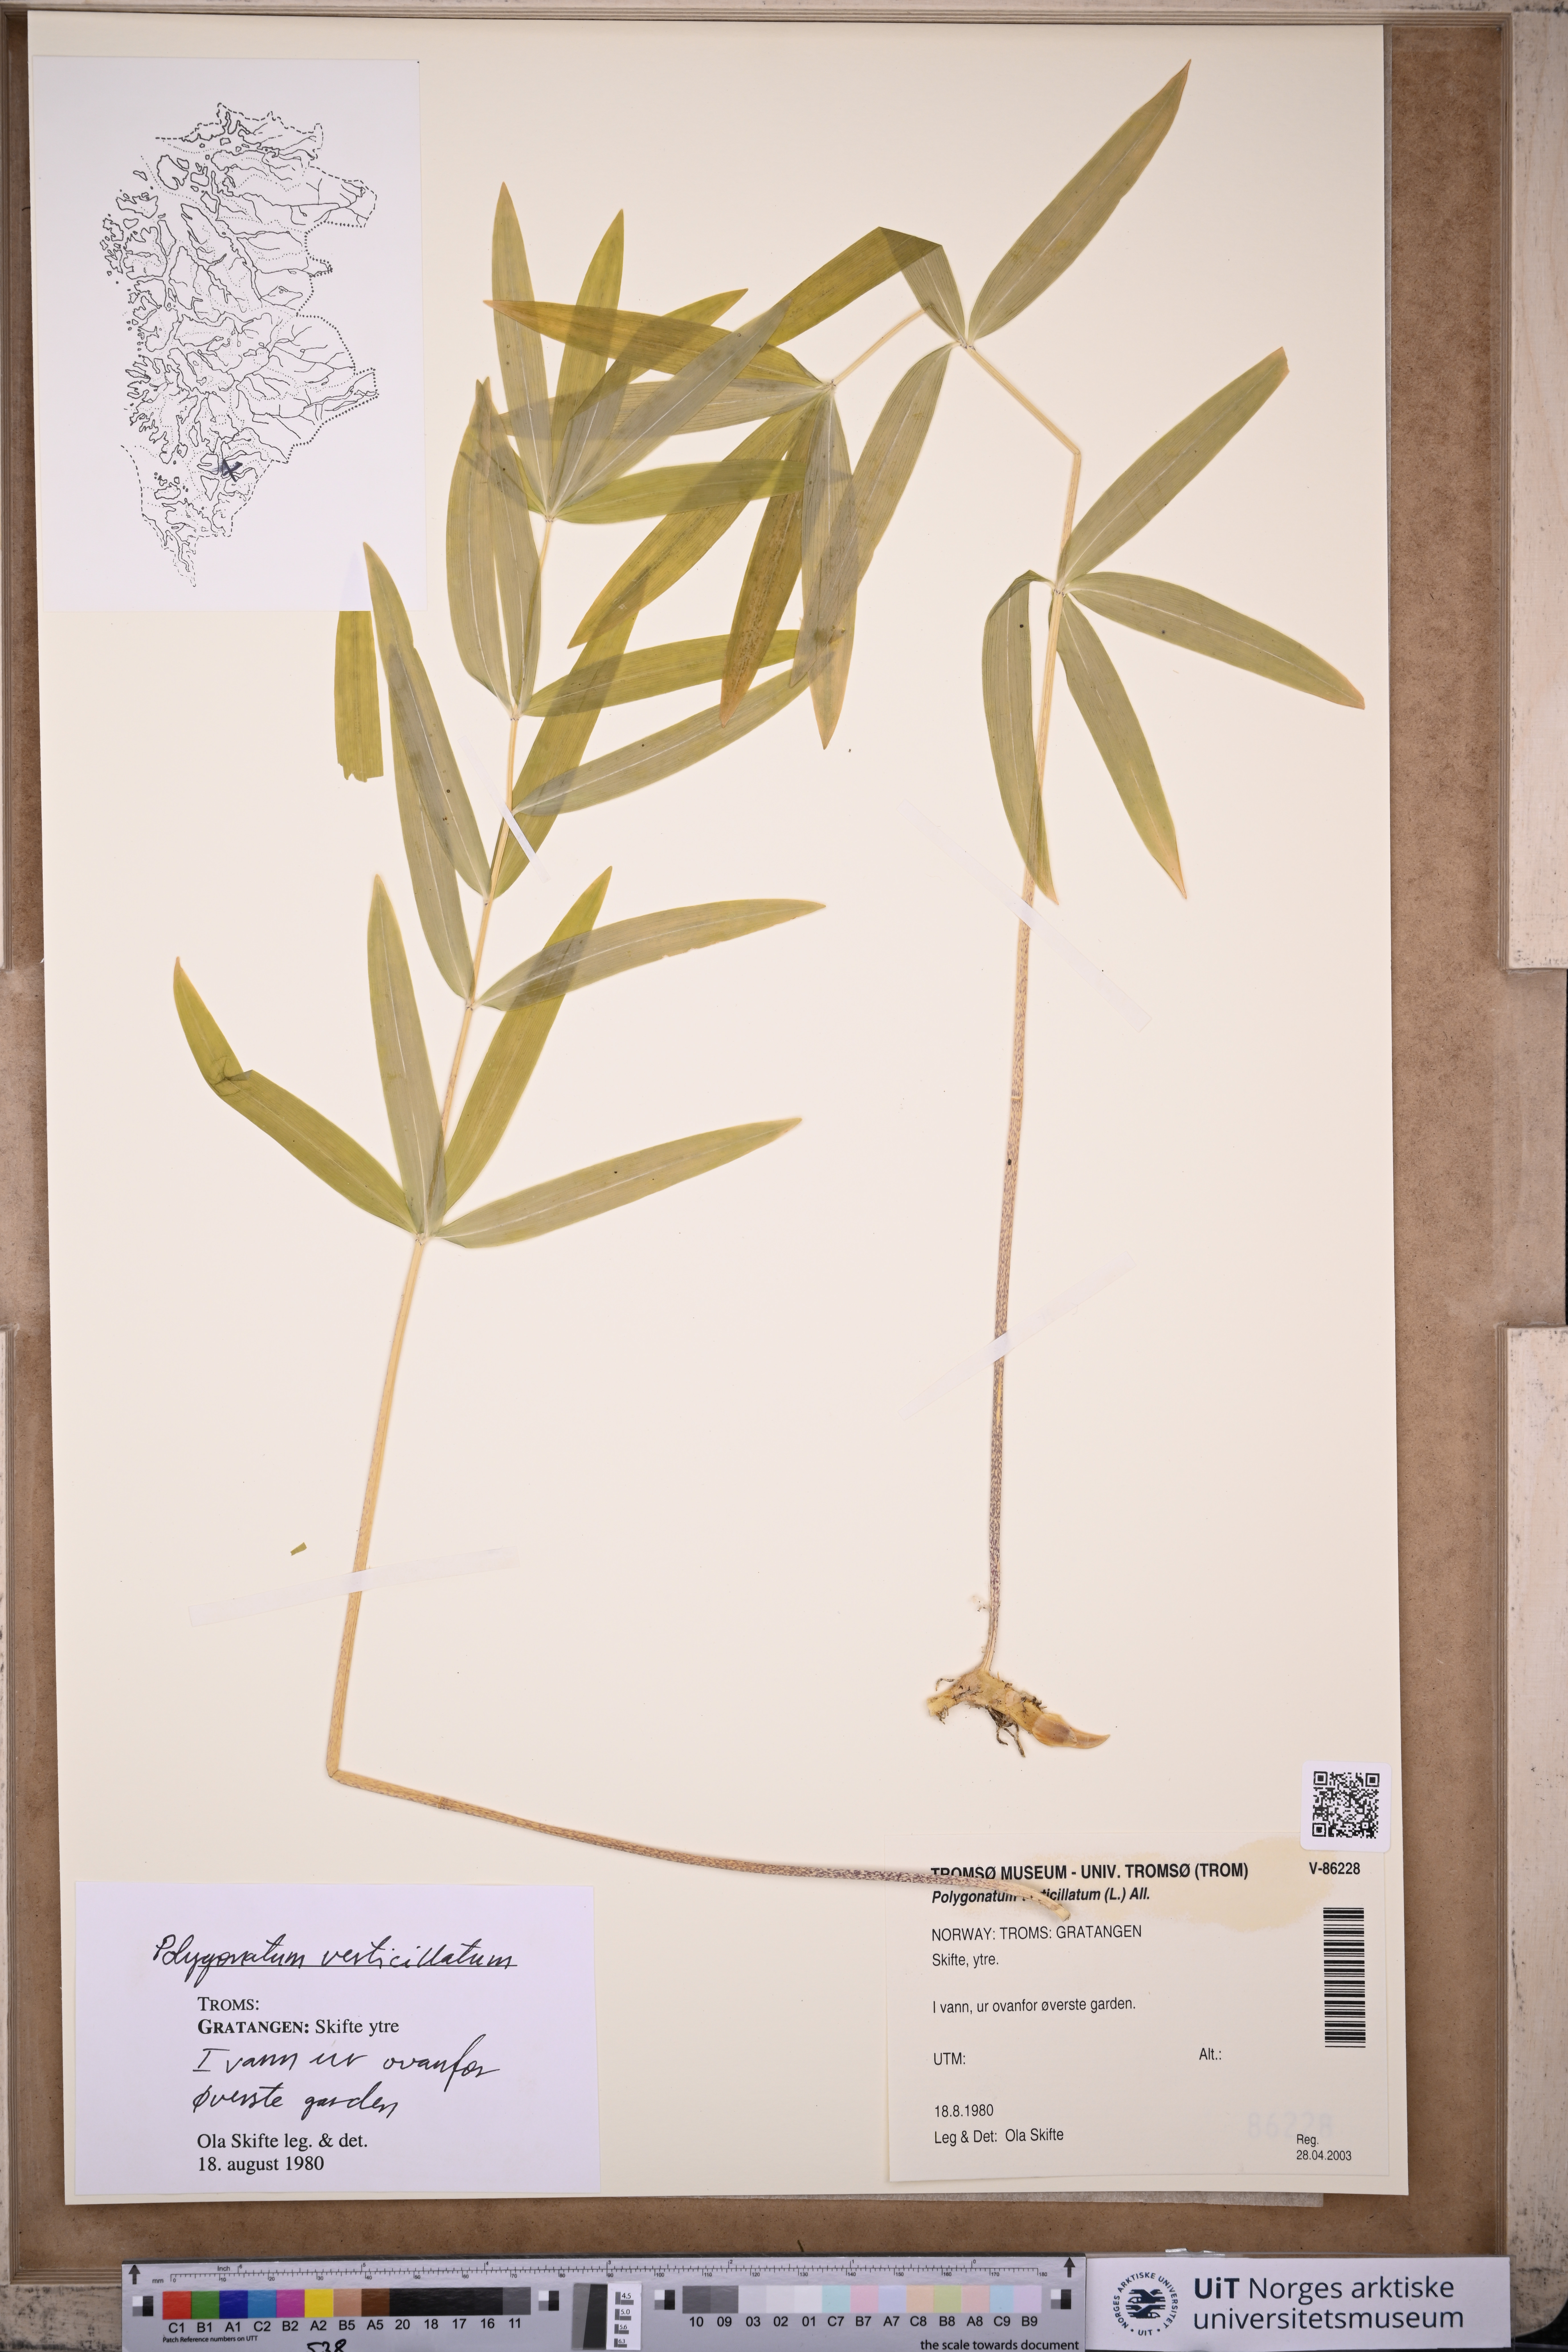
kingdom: Plantae
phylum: Tracheophyta
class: Liliopsida
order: Asparagales
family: Asparagaceae
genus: Polygonatum
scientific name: Polygonatum verticillatum
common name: Whorled solomon's-seal
